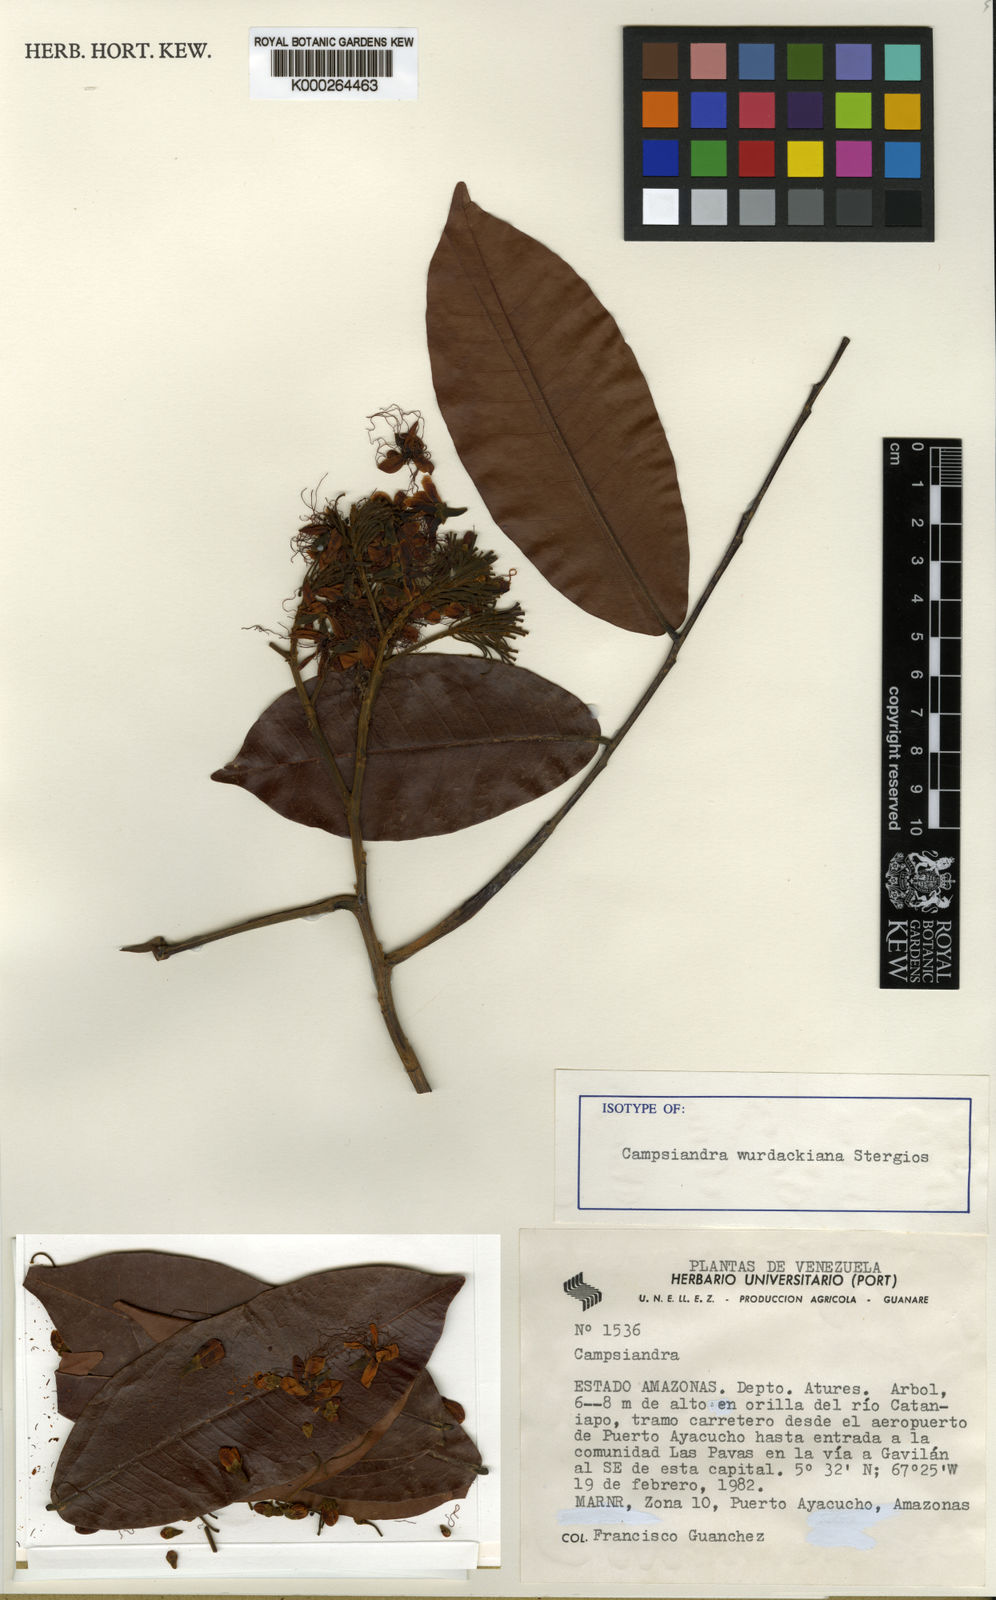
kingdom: Plantae
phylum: Tracheophyta
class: Magnoliopsida
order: Fabales
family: Fabaceae
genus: Campsiandra
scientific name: Campsiandra wurdackiana
